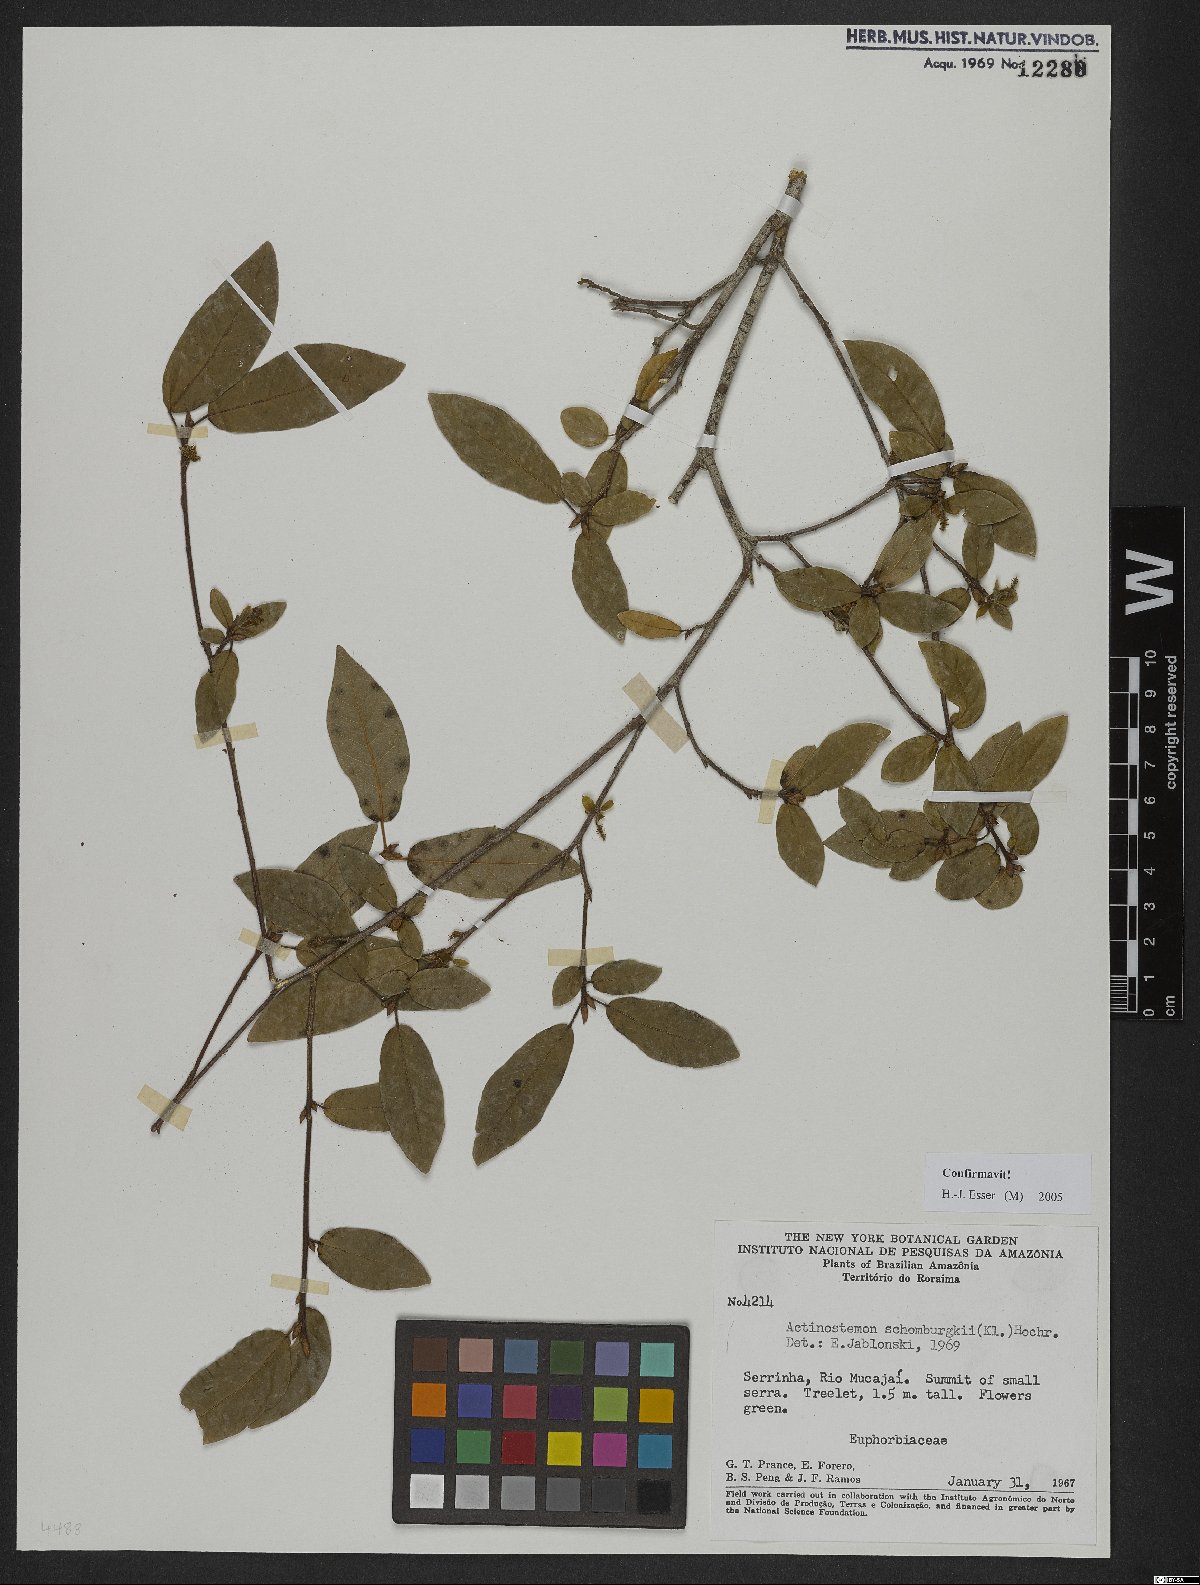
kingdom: Plantae
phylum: Tracheophyta
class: Magnoliopsida
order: Malpighiales
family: Euphorbiaceae
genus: Actinostemon
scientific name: Actinostemon schomburgkii
